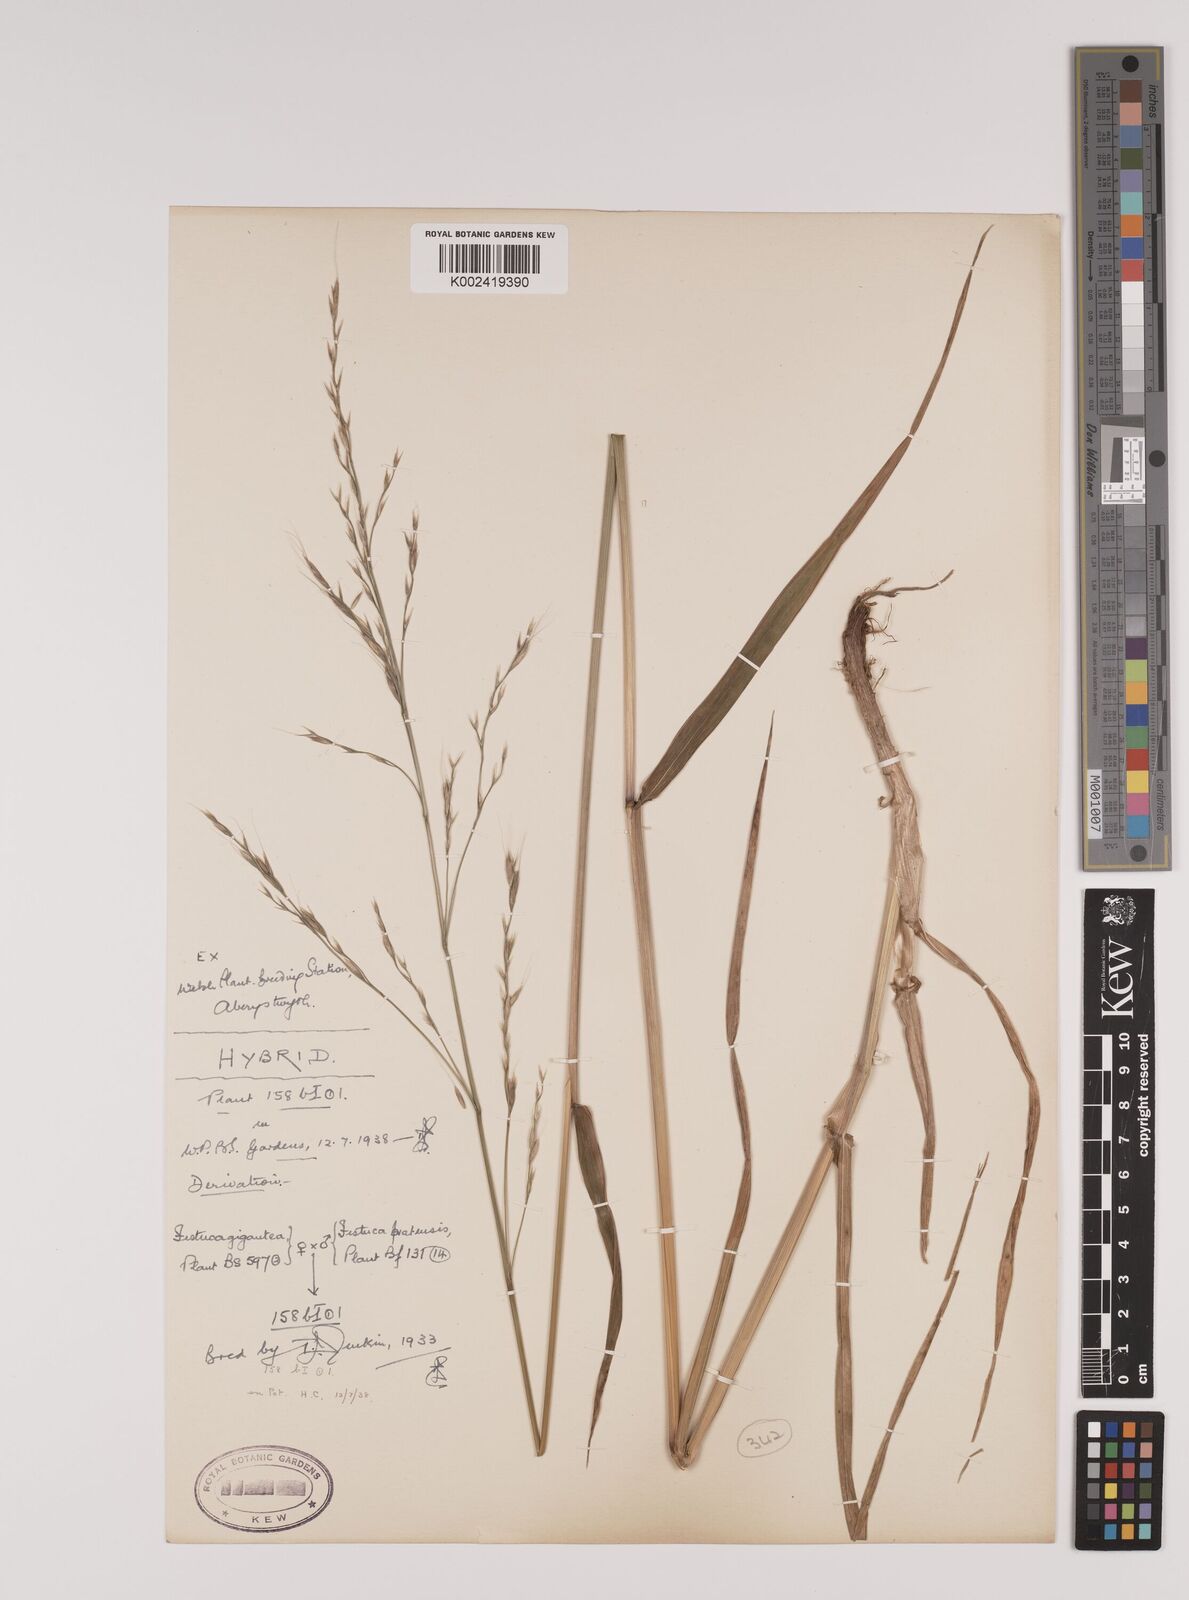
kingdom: Plantae
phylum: Tracheophyta
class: Liliopsida
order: Poales
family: Poaceae
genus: Lolium
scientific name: Lolium giganteum
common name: Giant fescue
